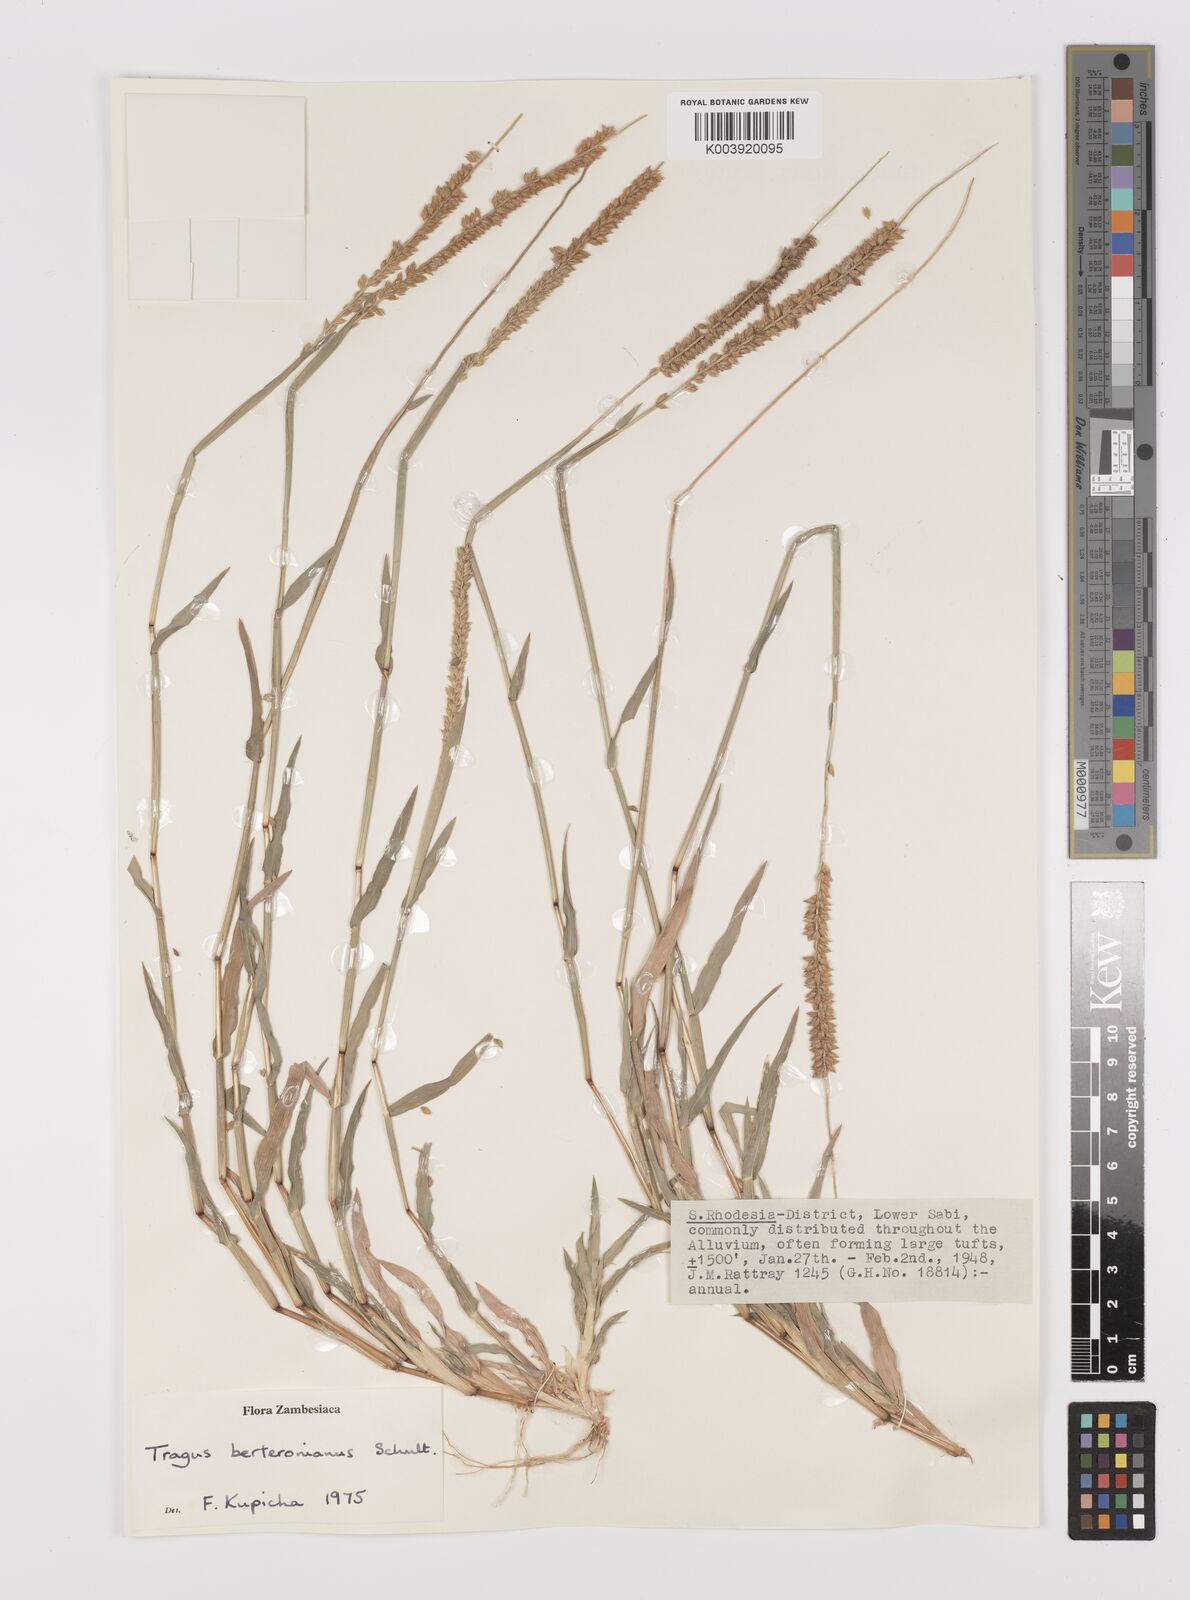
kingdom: Plantae
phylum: Tracheophyta
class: Liliopsida
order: Poales
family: Poaceae
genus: Tragus
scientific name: Tragus berteronianus
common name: African bur-grass
